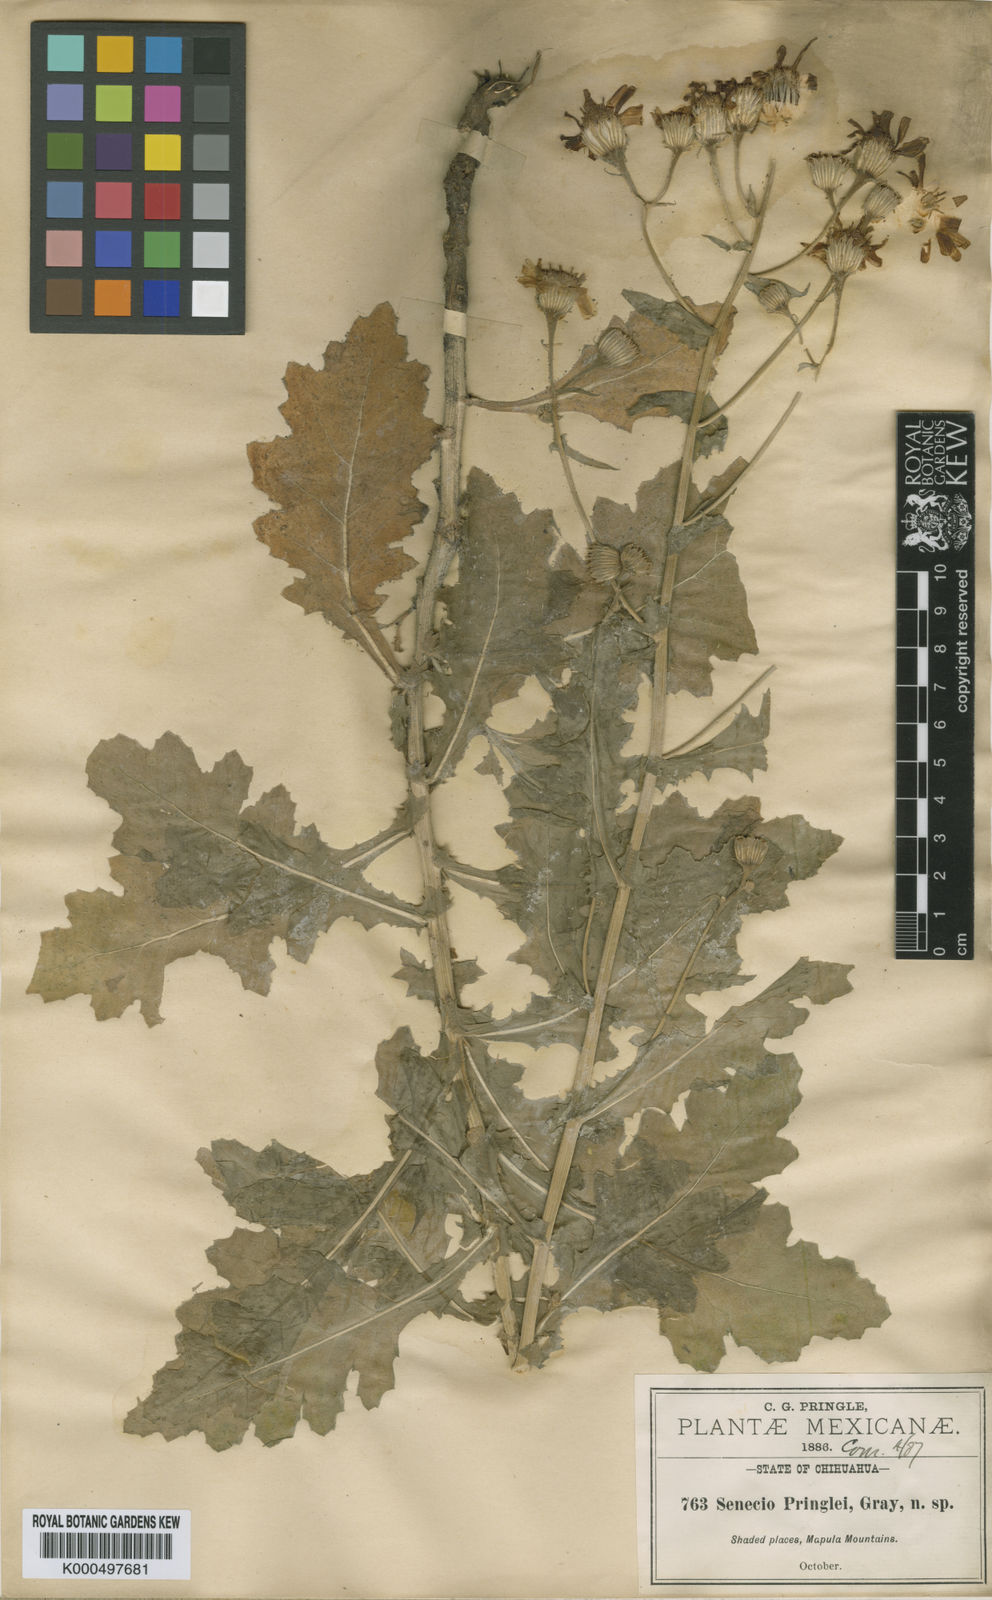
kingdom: Plantae
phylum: Tracheophyta
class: Magnoliopsida
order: Asterales
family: Asteraceae
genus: Senecio
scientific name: Senecio pringlei
